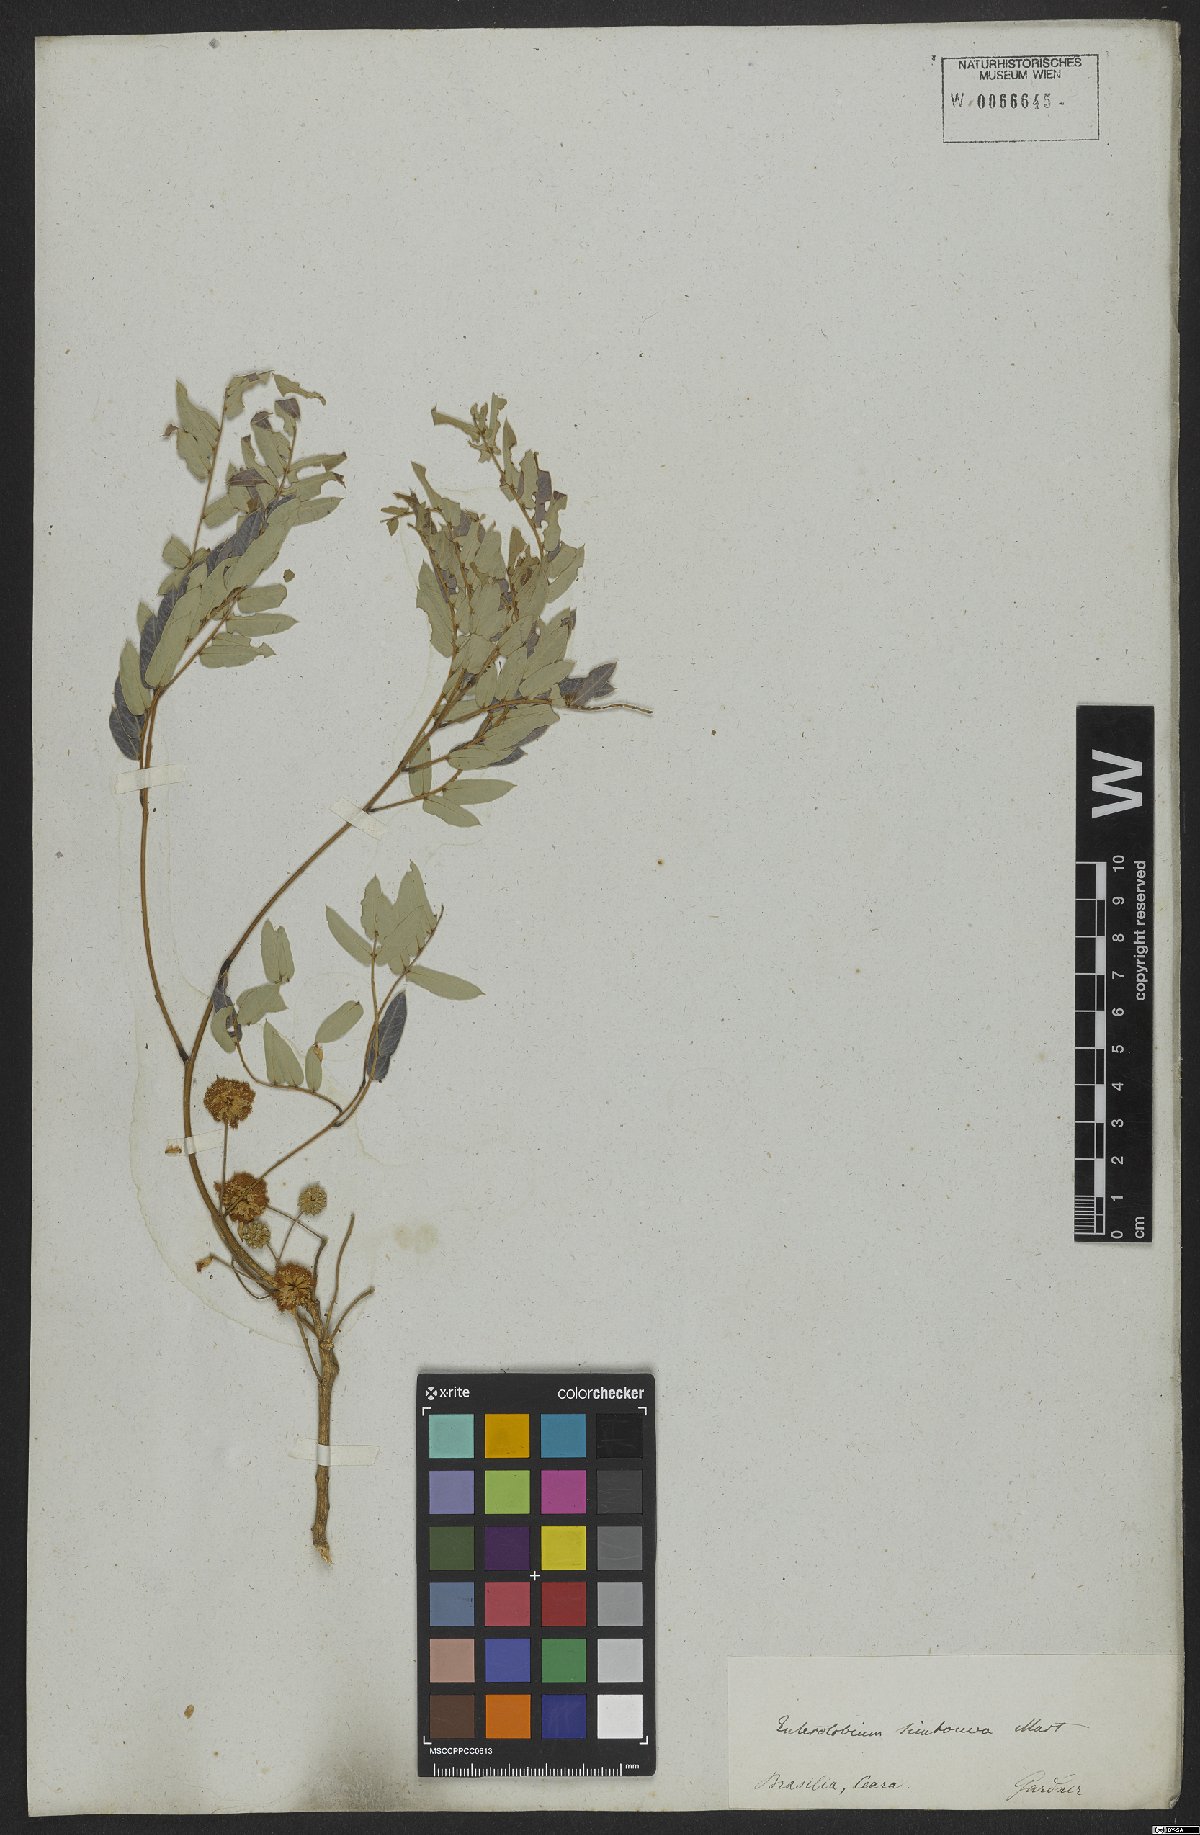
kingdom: Plantae
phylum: Tracheophyta
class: Magnoliopsida
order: Fabales
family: Fabaceae
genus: Enterolobium
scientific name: Enterolobium timbouva
